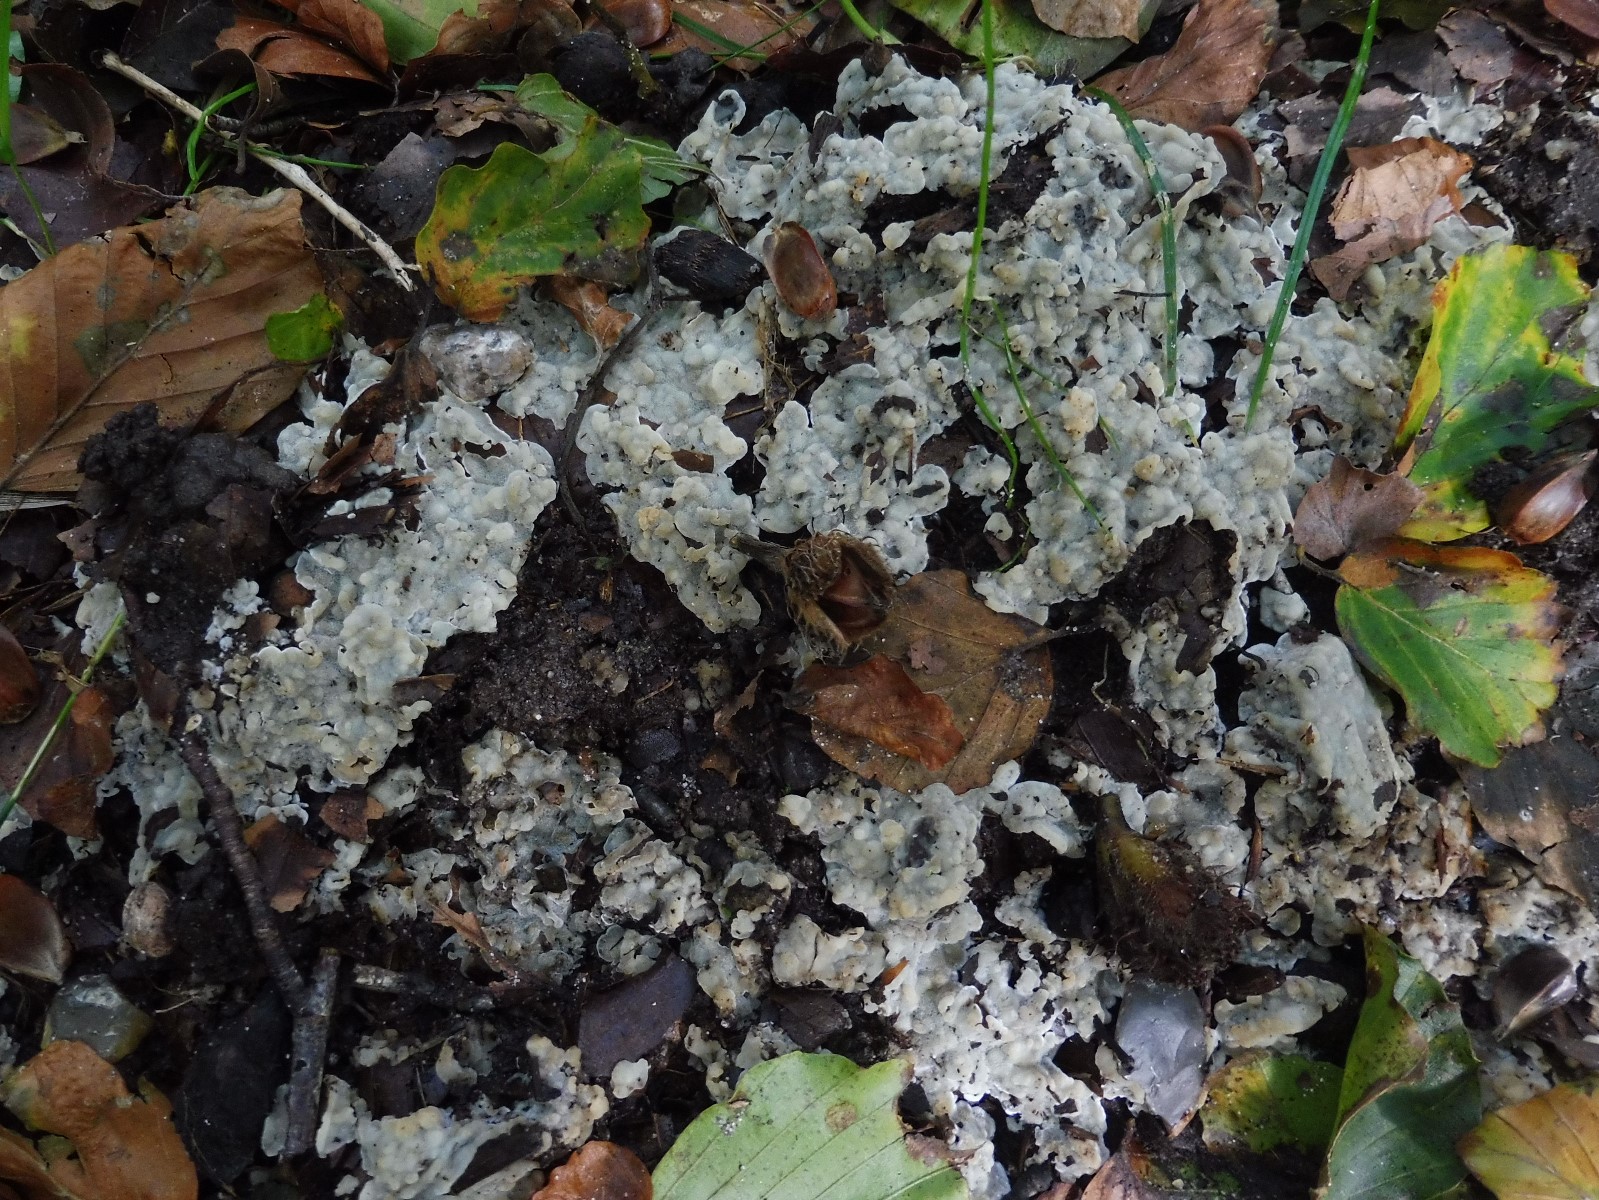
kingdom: Fungi
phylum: Basidiomycota
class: Agaricomycetes
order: Polyporales
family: Meruliaceae
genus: Physisporinus
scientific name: Physisporinus vitreus
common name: mastesvamp
